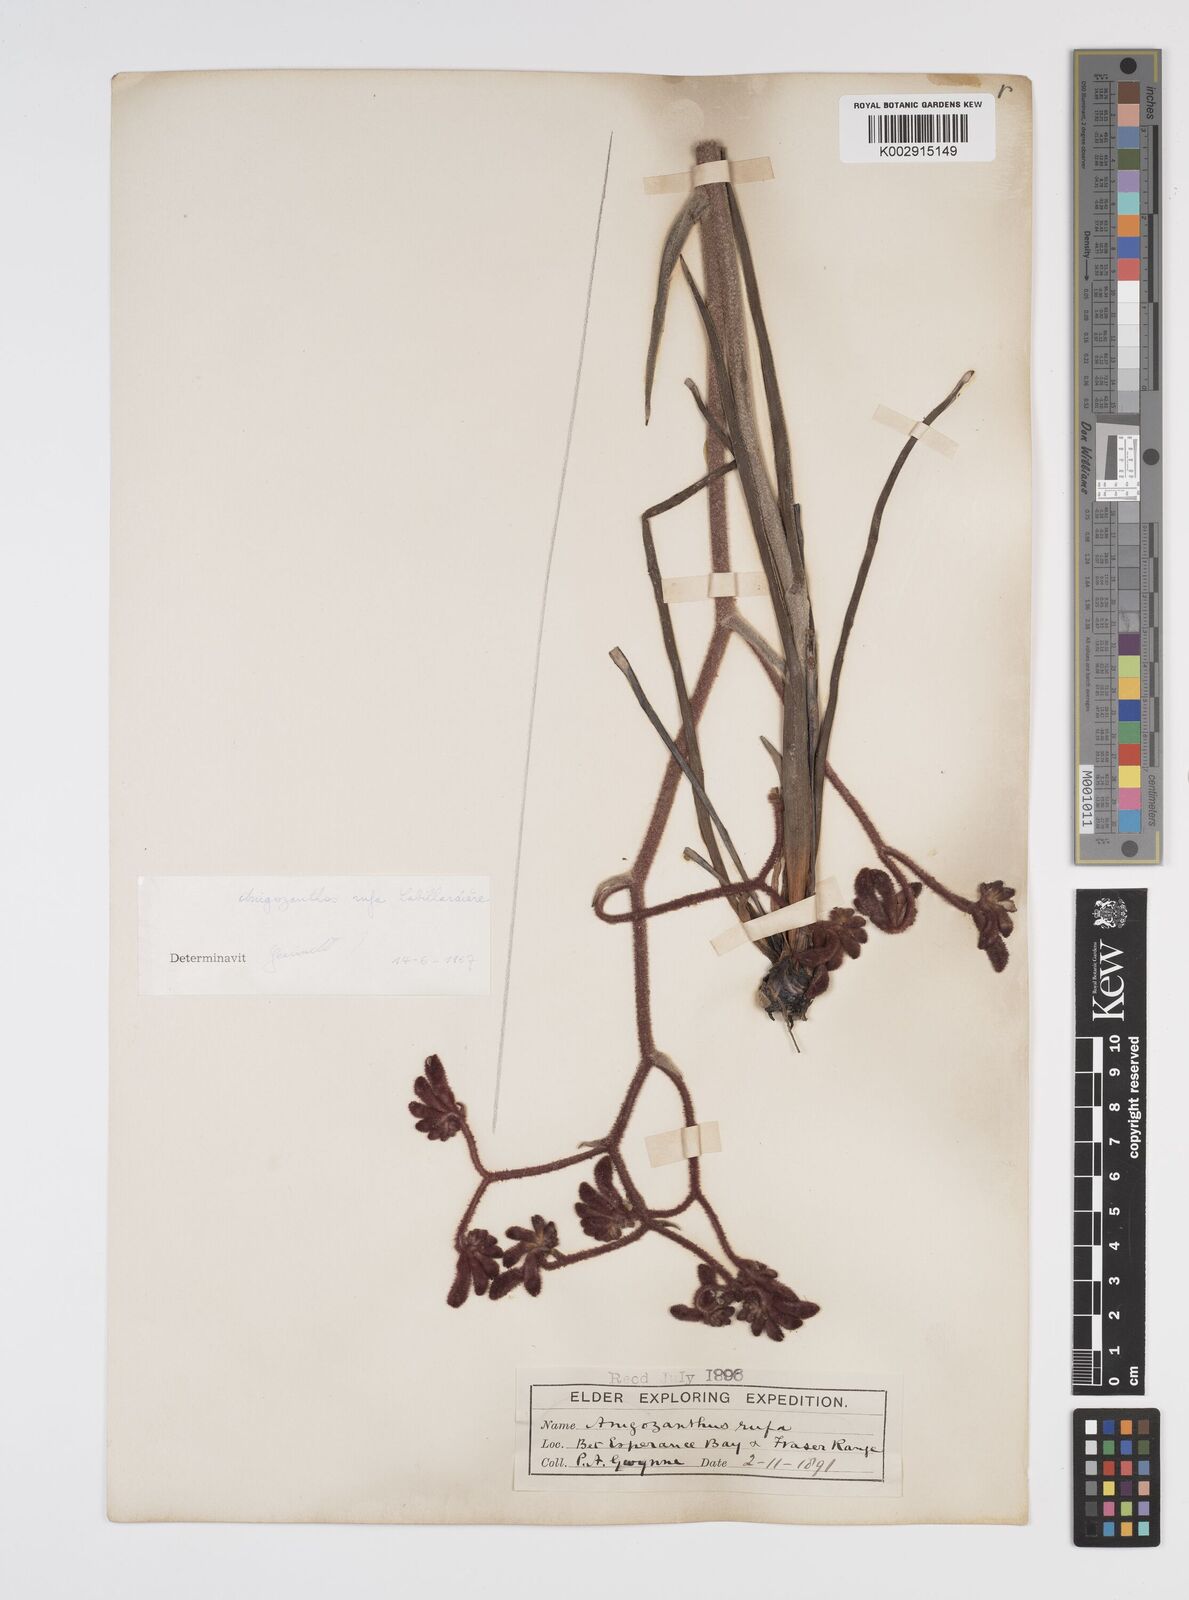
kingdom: Plantae
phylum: Tracheophyta
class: Liliopsida
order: Commelinales
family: Haemodoraceae
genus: Anigozanthos
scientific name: Anigozanthos rufus
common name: Red kangaroo-paw
